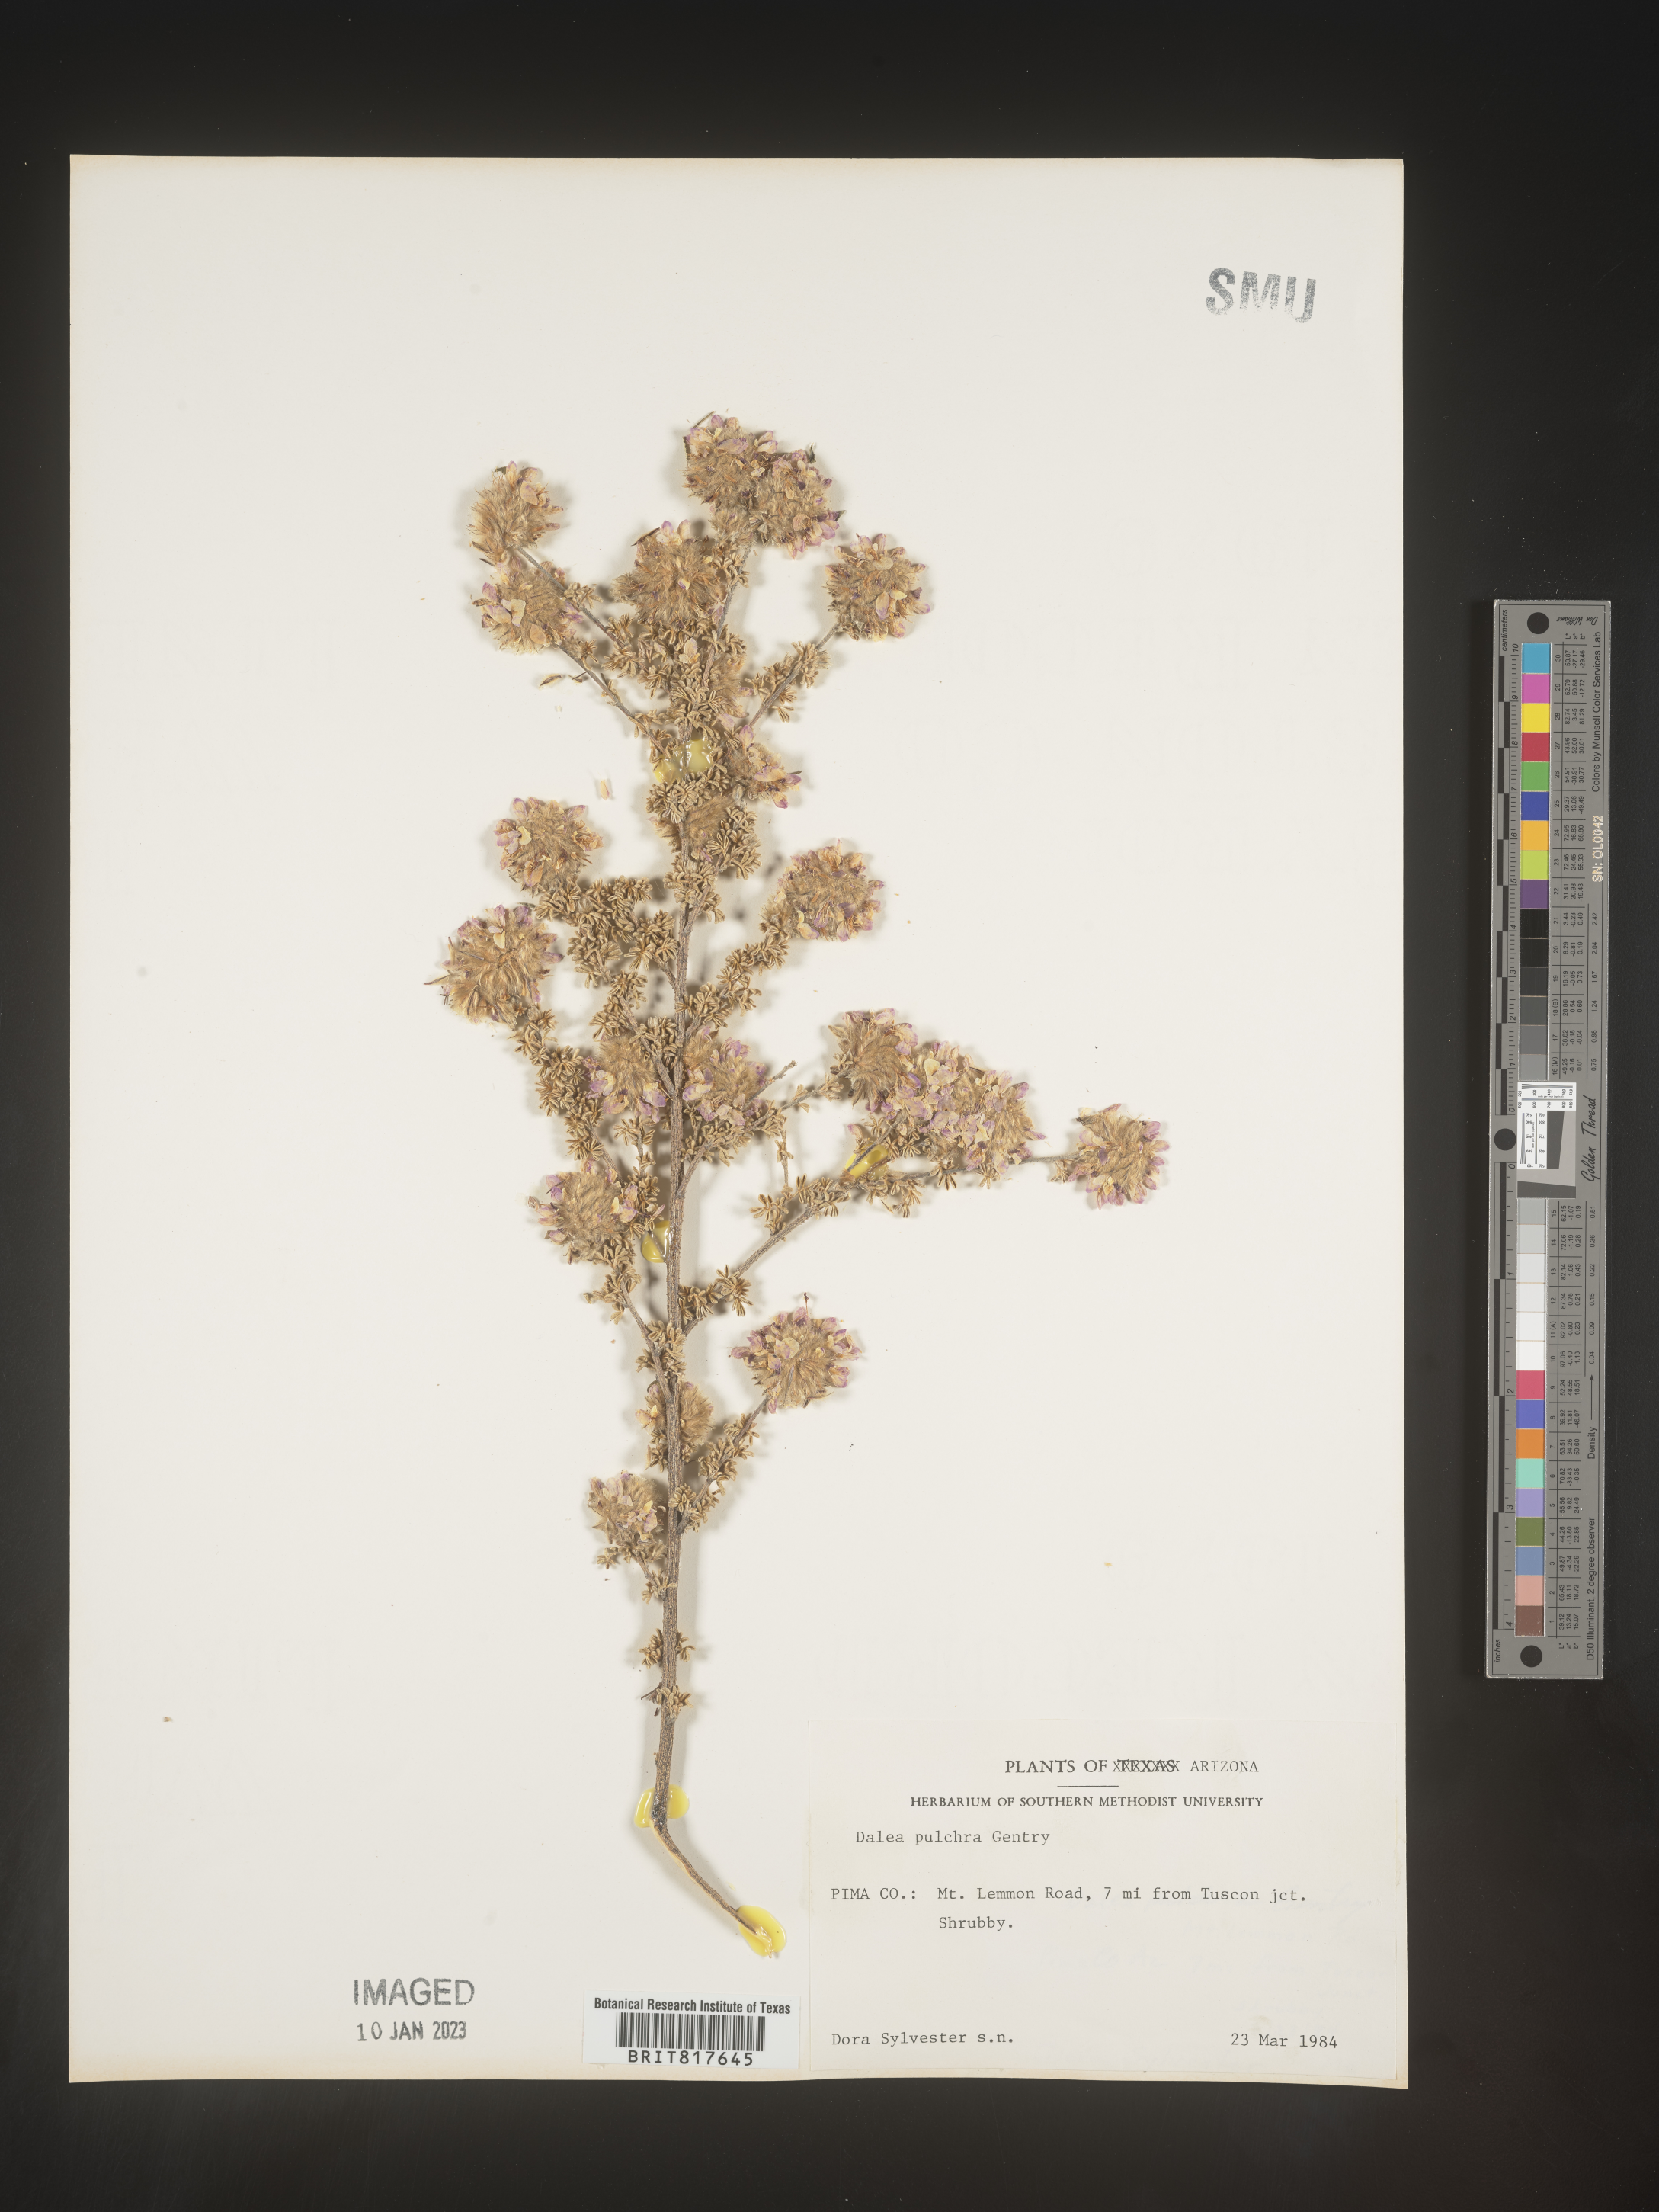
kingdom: Plantae
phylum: Tracheophyta
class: Magnoliopsida
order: Fabales
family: Fabaceae
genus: Dalea
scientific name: Dalea pulchra
